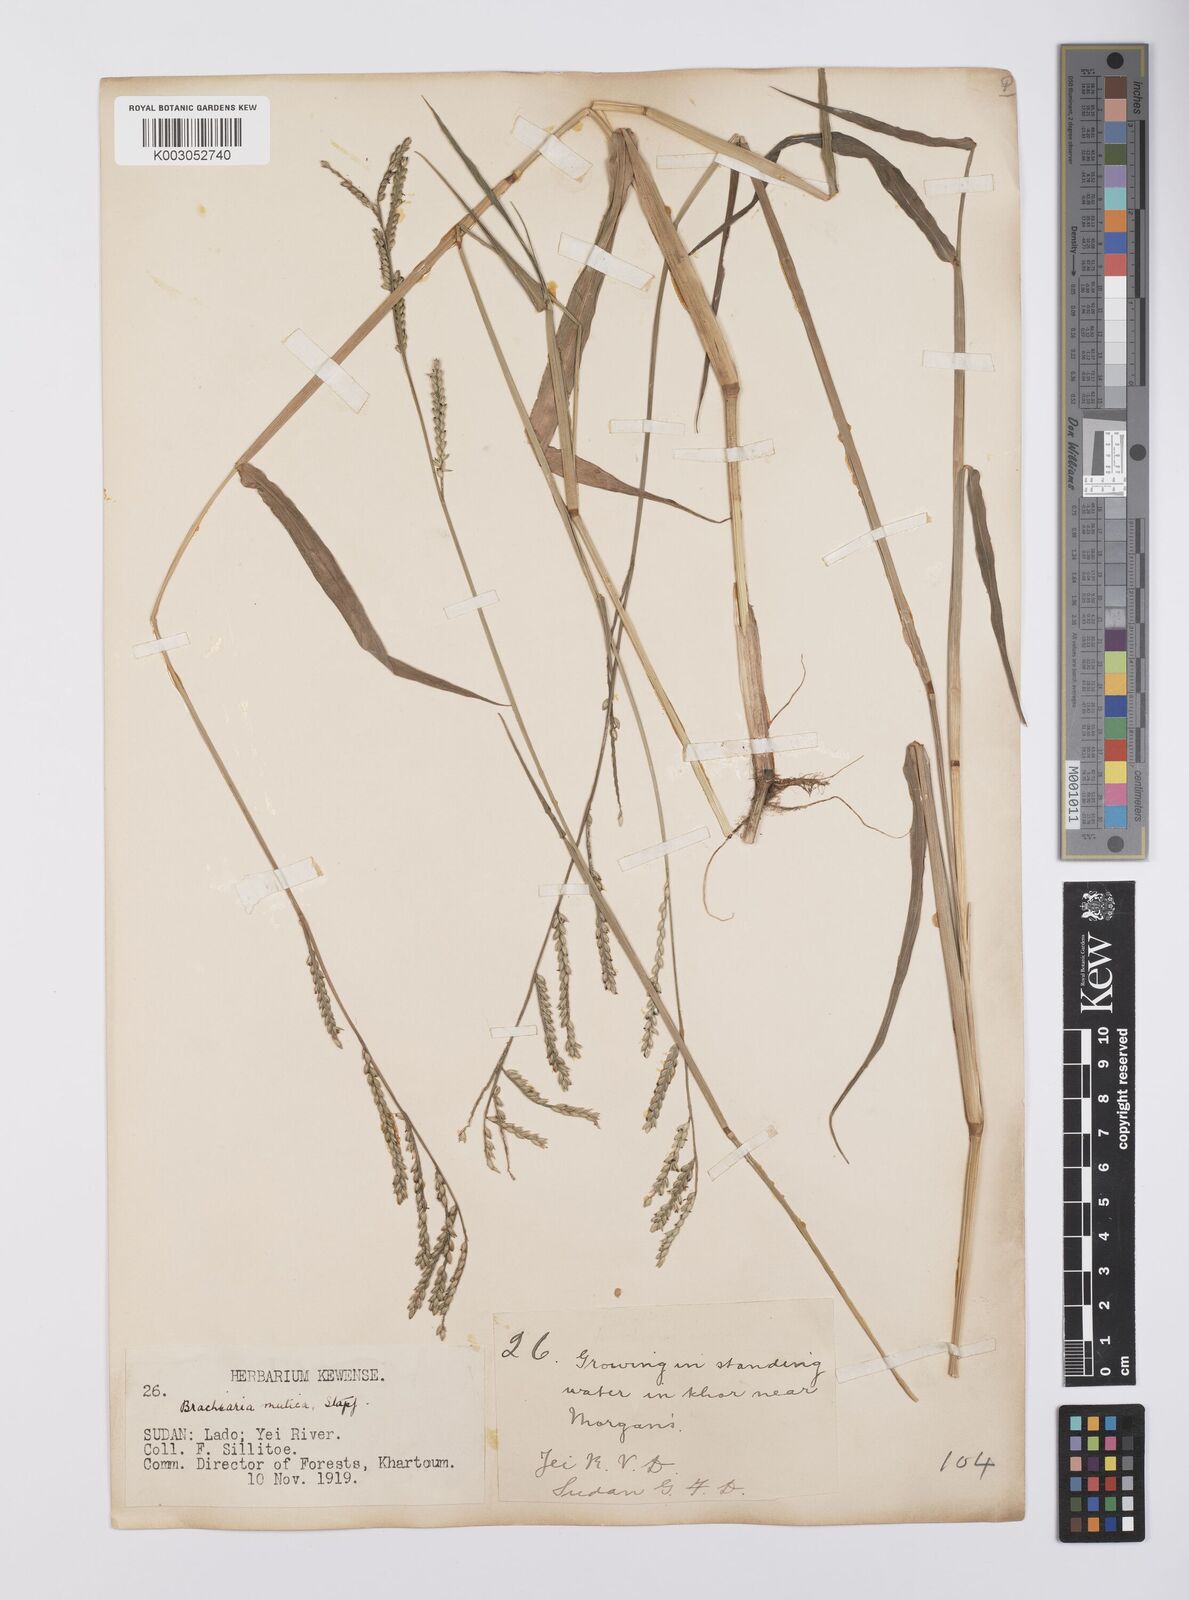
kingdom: Plantae
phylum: Tracheophyta
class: Liliopsida
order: Poales
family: Poaceae
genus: Urochloa
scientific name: Urochloa arrecta
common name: African signalgrass
